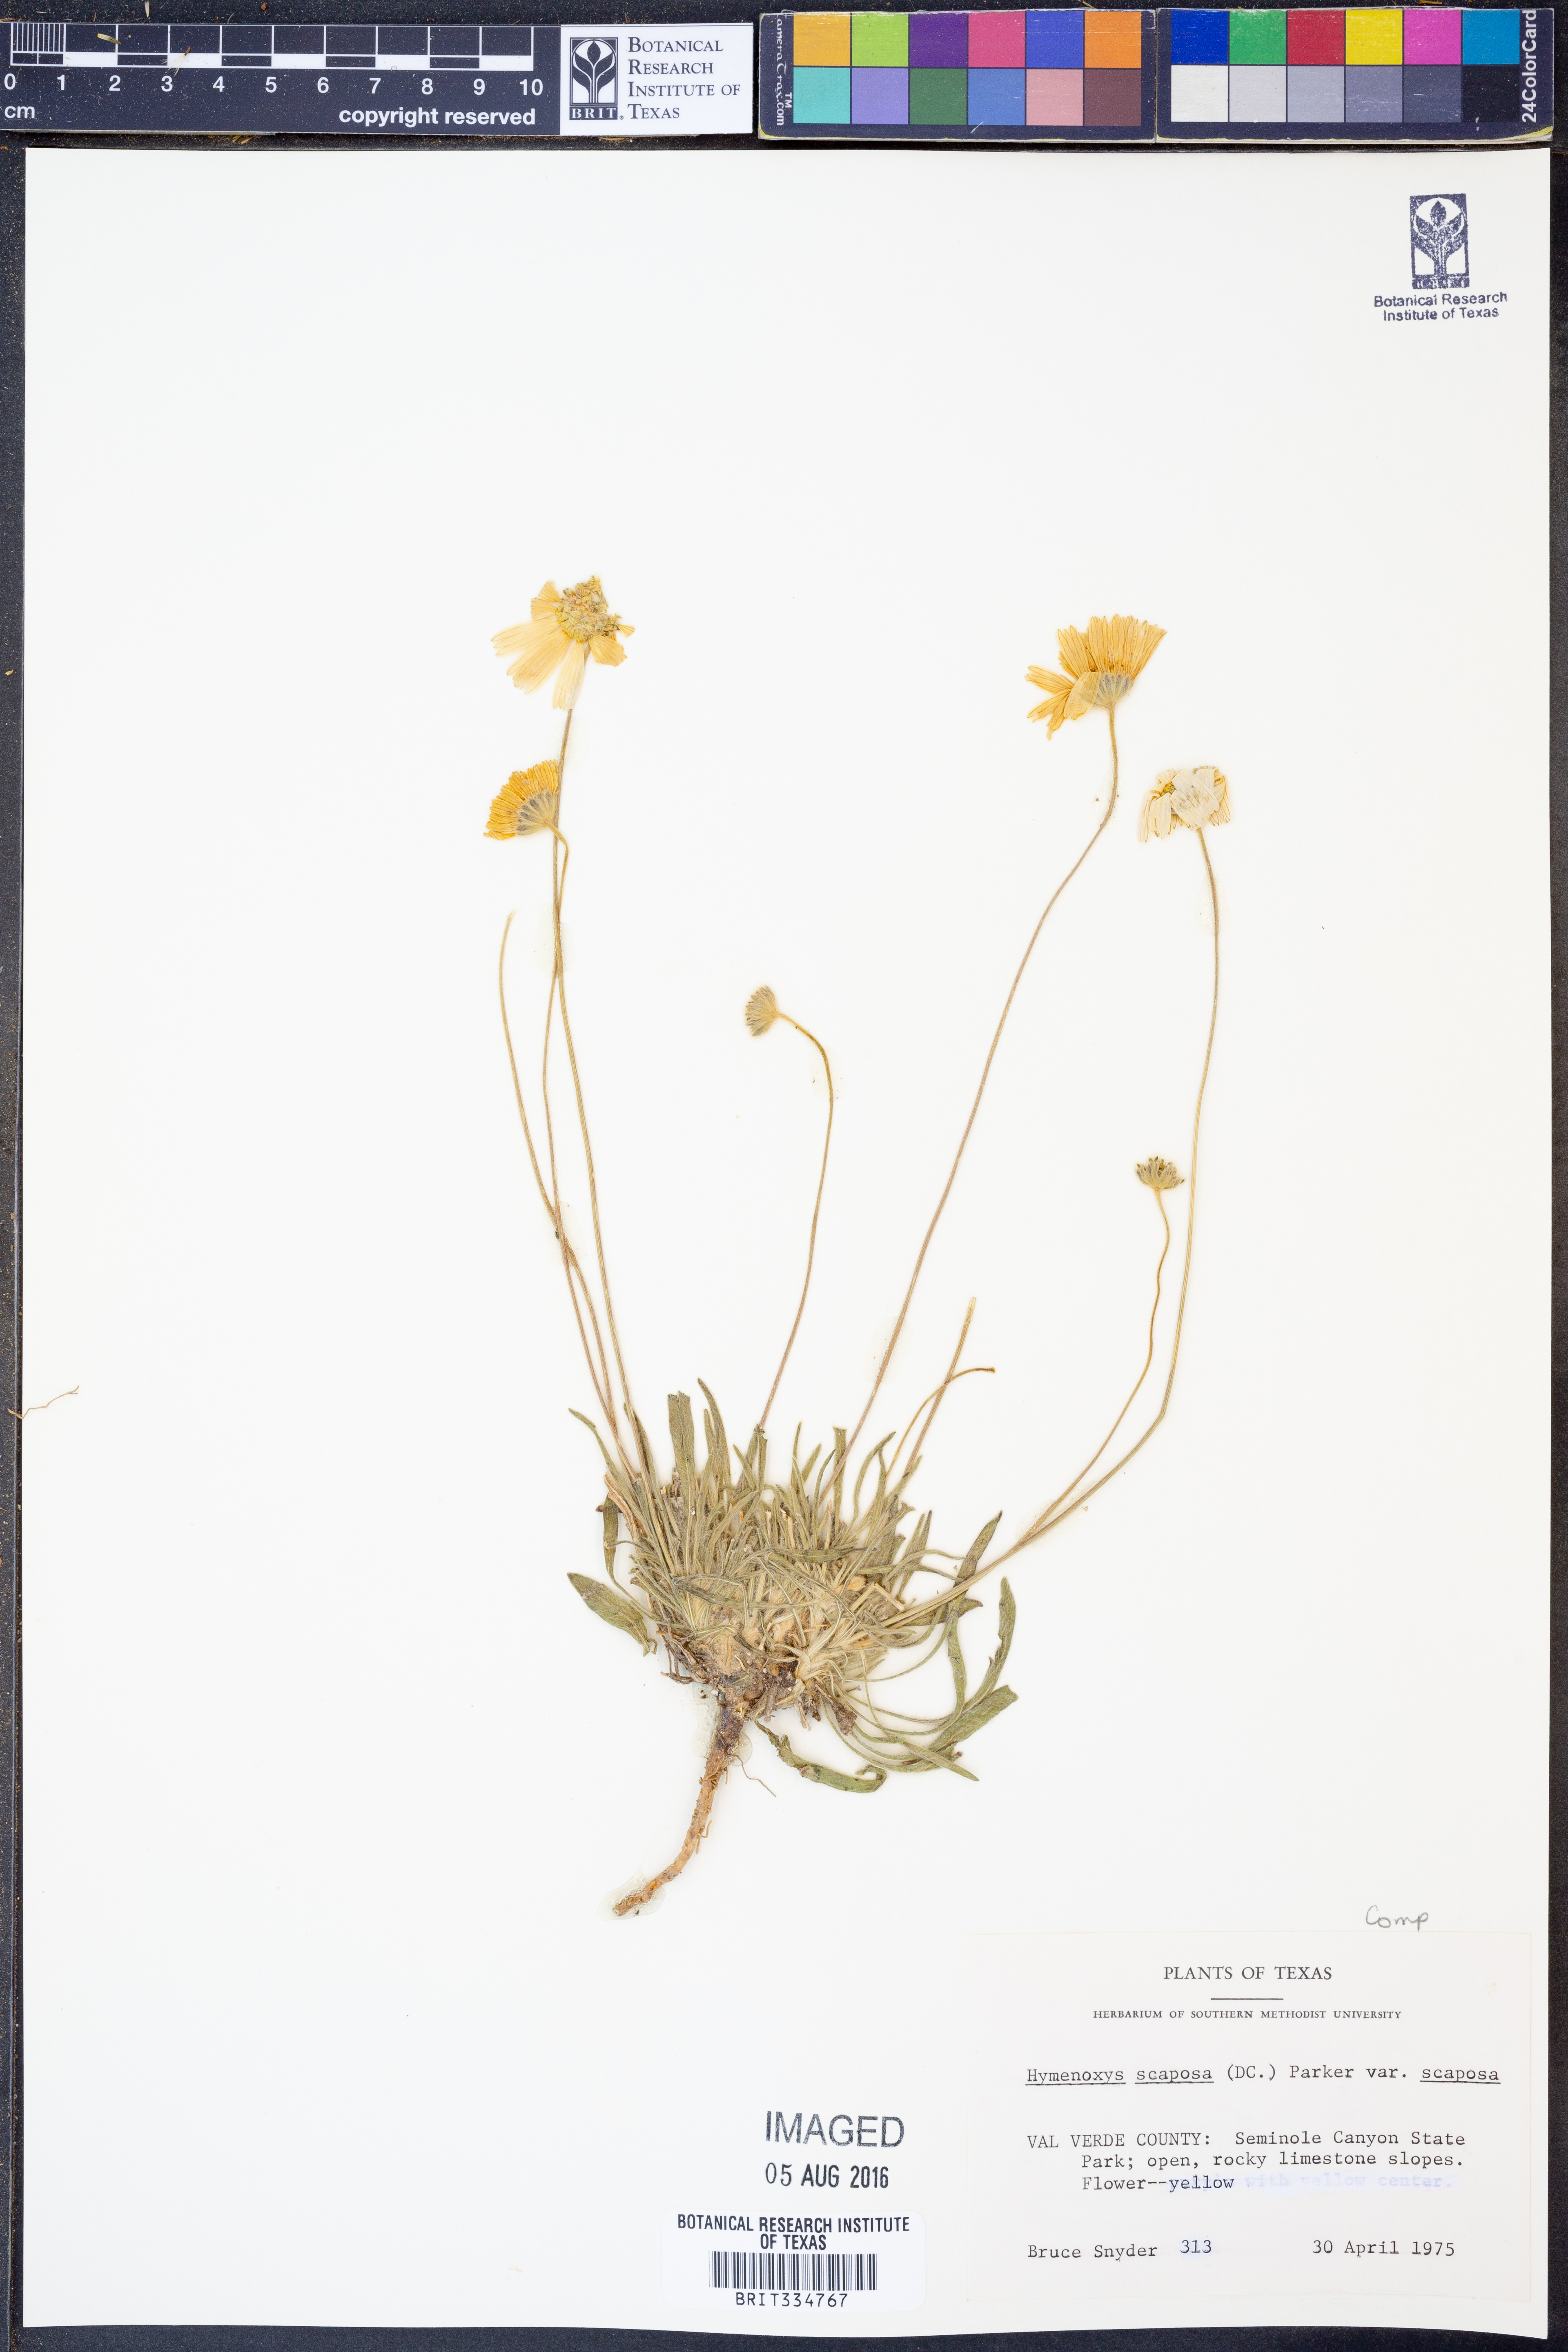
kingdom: Plantae
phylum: Tracheophyta
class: Magnoliopsida
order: Asterales
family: Asteraceae
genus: Tetraneuris
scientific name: Tetraneuris scaposa
